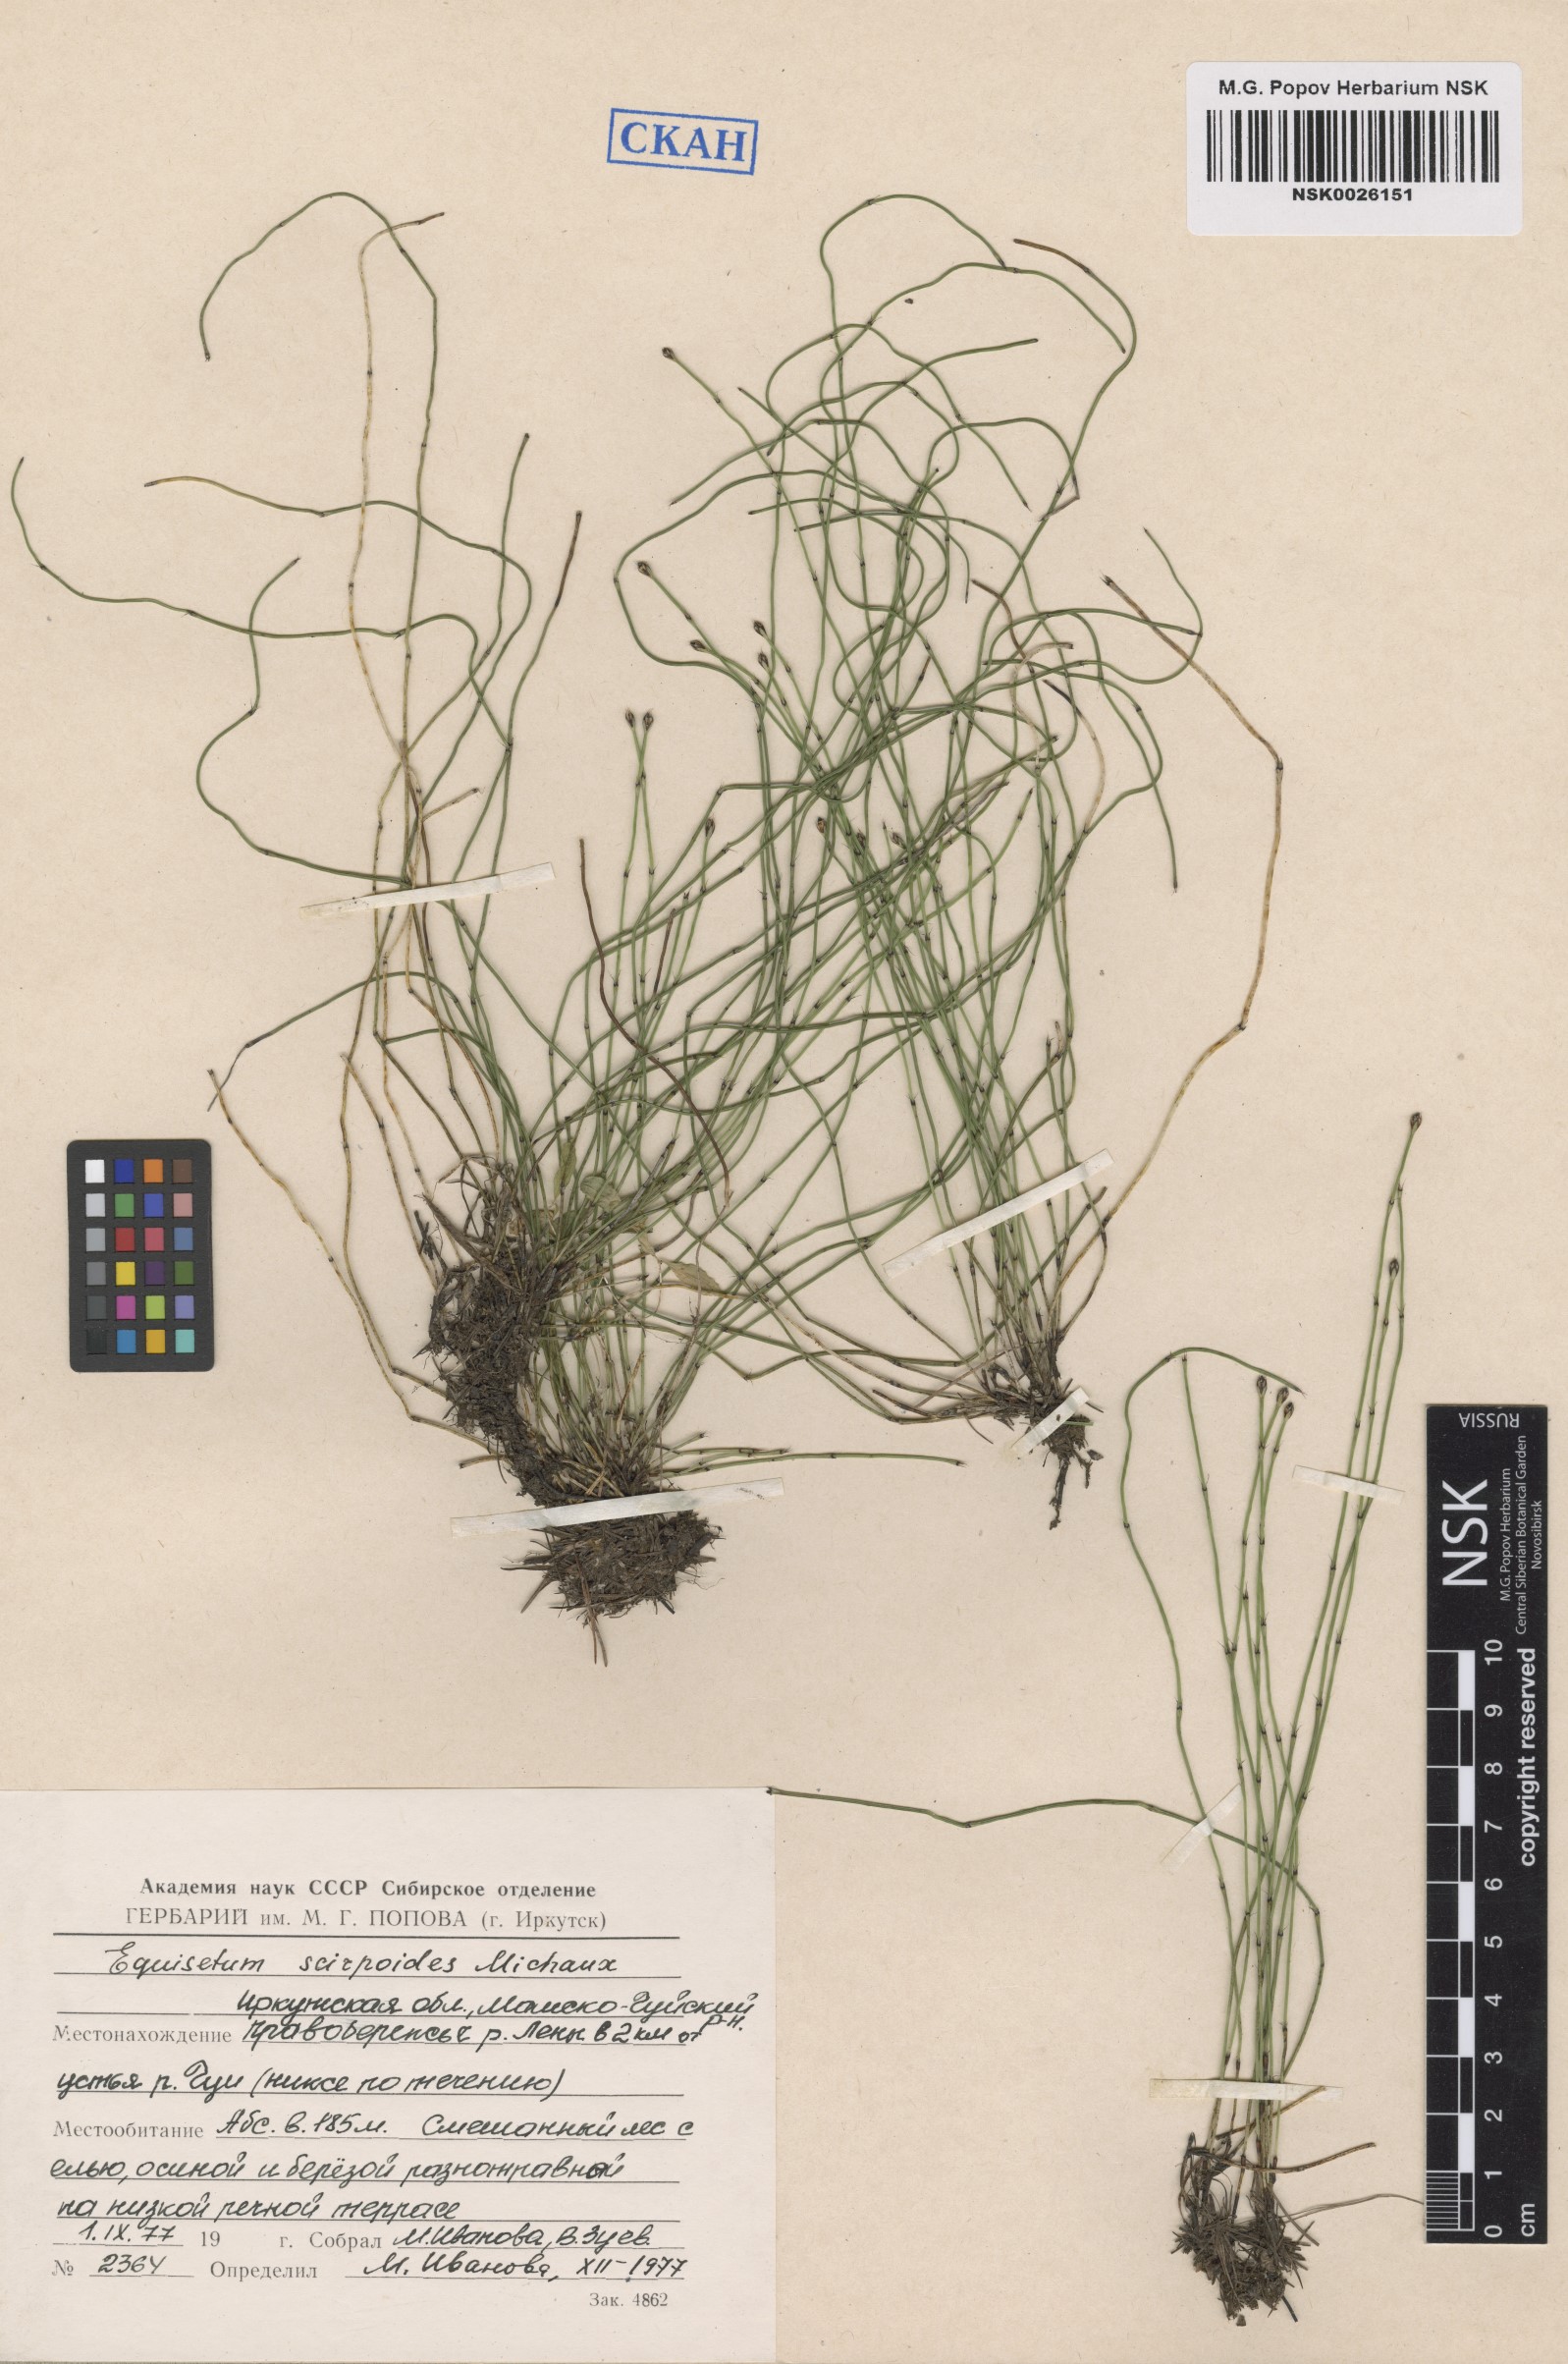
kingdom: Plantae
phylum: Tracheophyta
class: Polypodiopsida
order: Equisetales
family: Equisetaceae
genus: Equisetum
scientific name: Equisetum scirpoides
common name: Delicate horsetail
